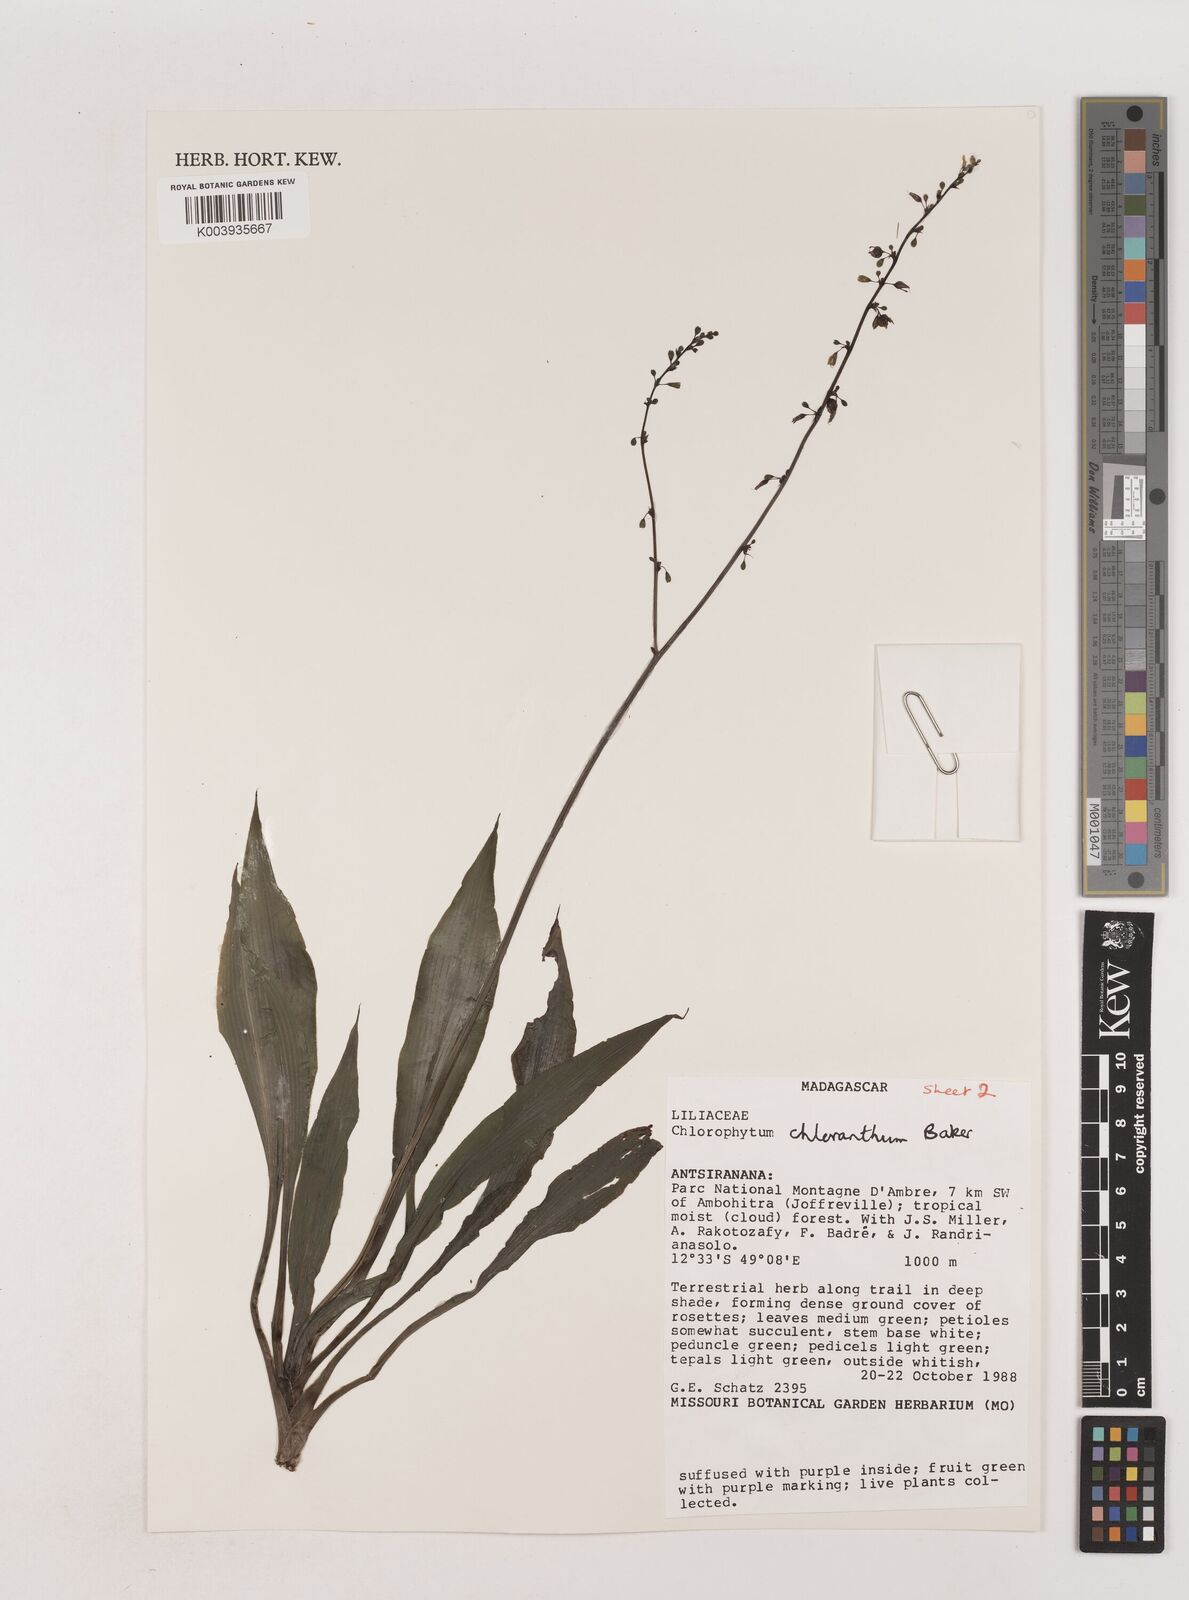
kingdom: Plantae
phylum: Tracheophyta
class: Liliopsida
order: Asparagales
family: Asparagaceae
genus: Chlorophytum
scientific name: Chlorophytum chloranthum
